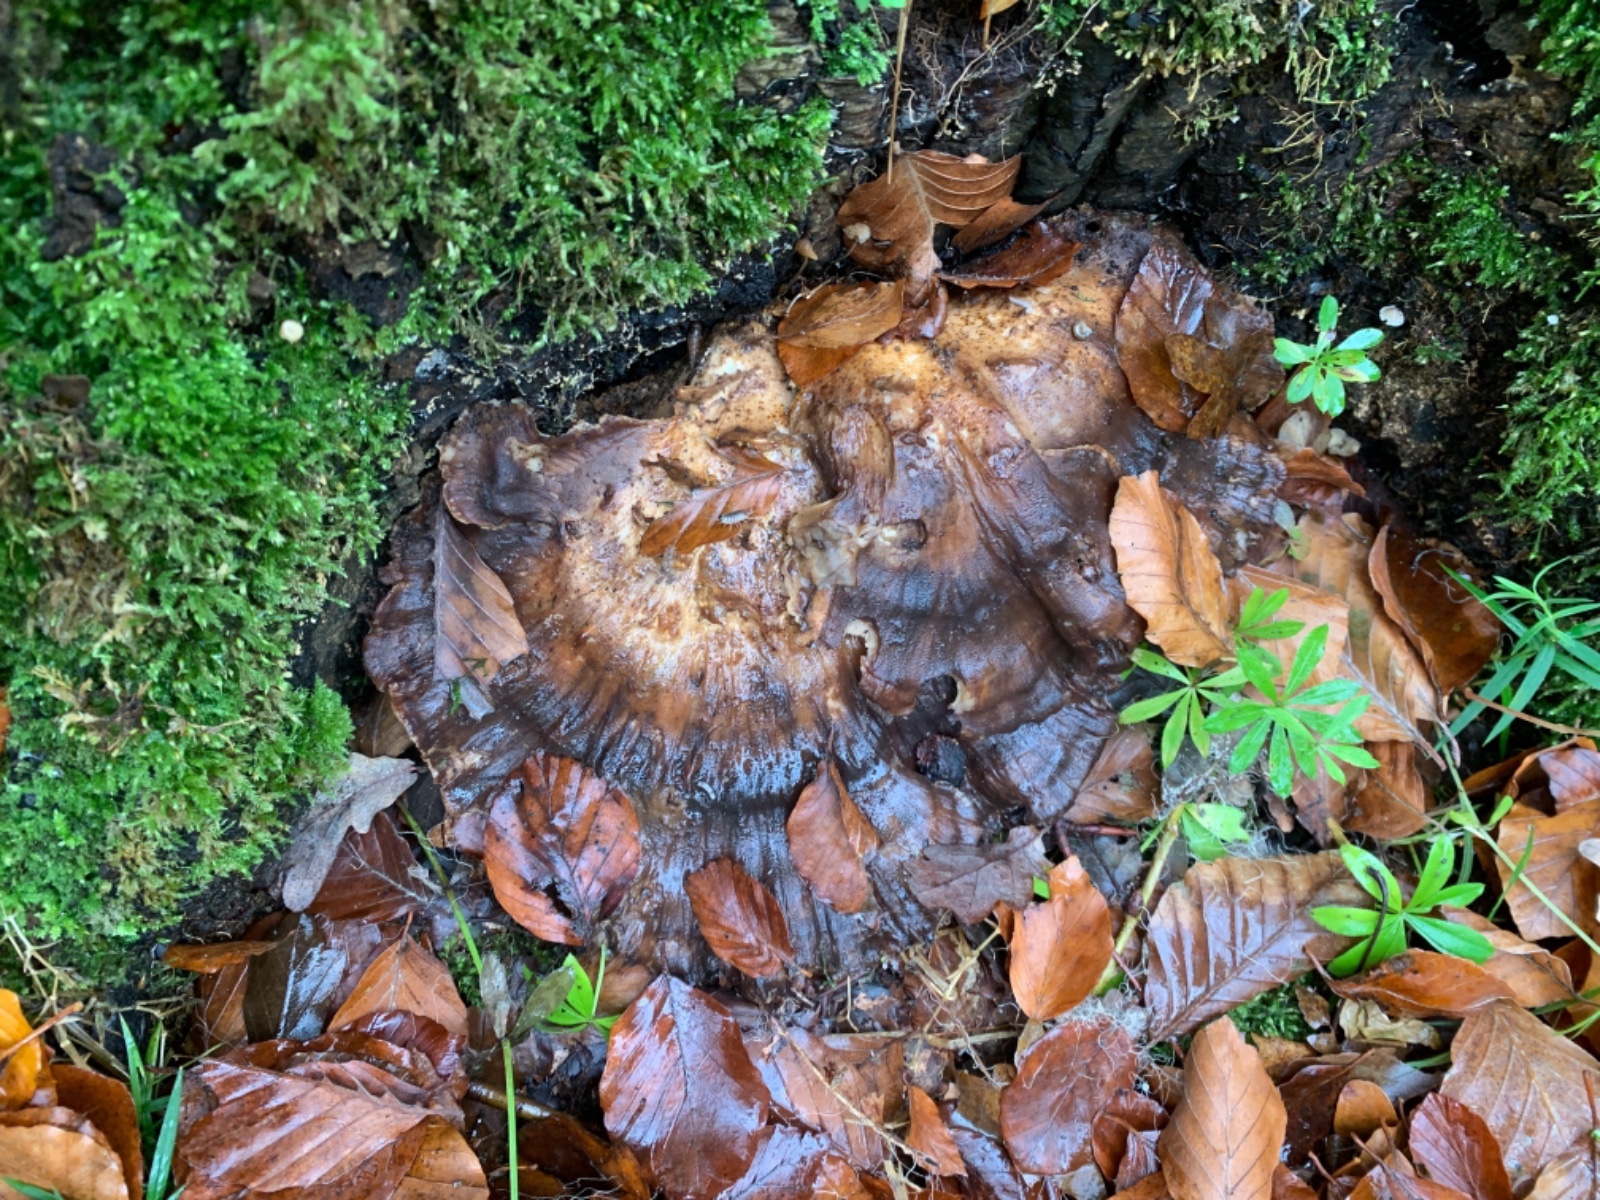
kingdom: Fungi
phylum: Basidiomycota
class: Agaricomycetes
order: Polyporales
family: Meripilaceae
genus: Meripilus
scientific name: Meripilus giganteus
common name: kæmpeporesvamp
